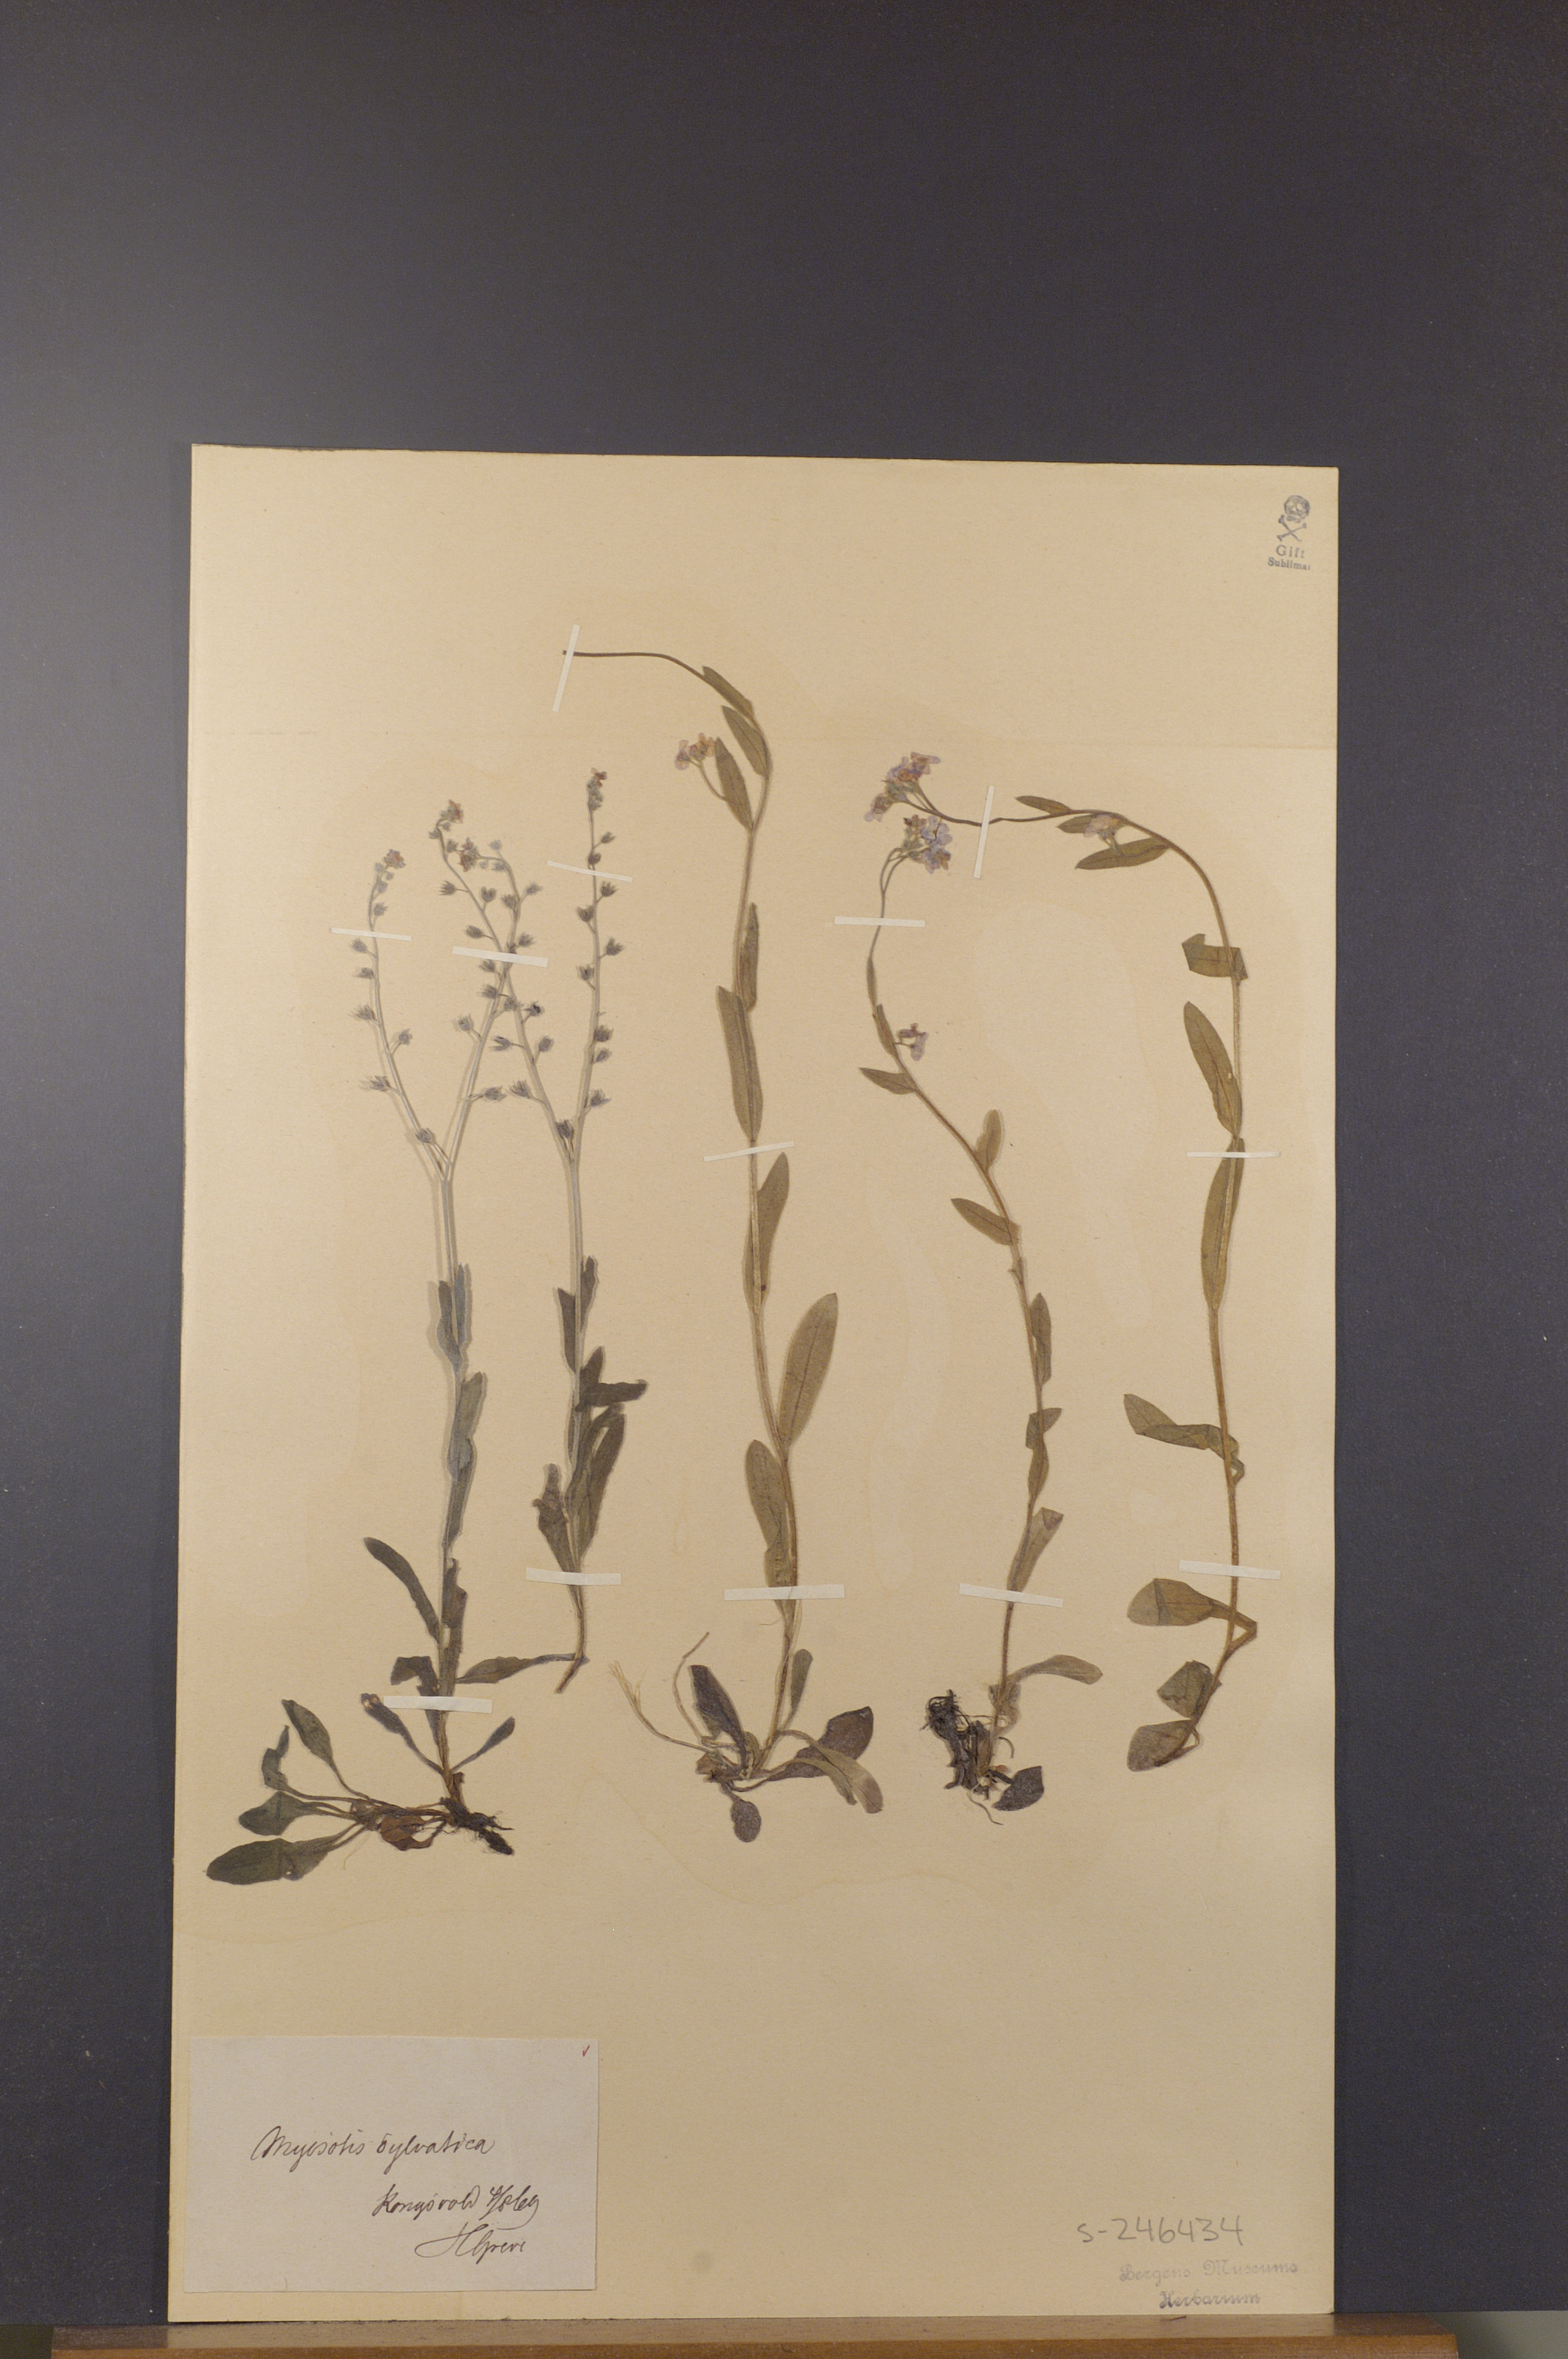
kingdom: Plantae
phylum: Tracheophyta
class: Magnoliopsida
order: Boraginales
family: Boraginaceae
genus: Myosotis
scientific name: Myosotis decumbens
